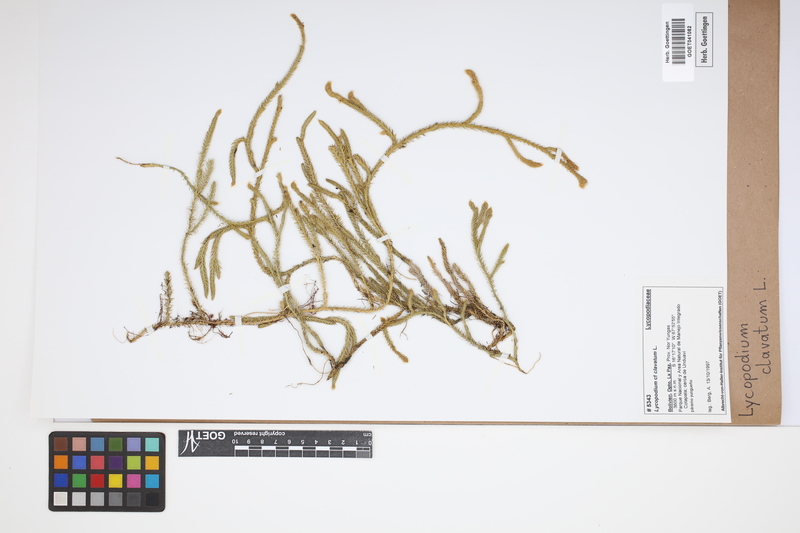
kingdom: Plantae
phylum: Tracheophyta
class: Lycopodiopsida
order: Lycopodiales
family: Lycopodiaceae
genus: Lycopodium
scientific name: Lycopodium clavatum
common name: Stag's-horn clubmoss
